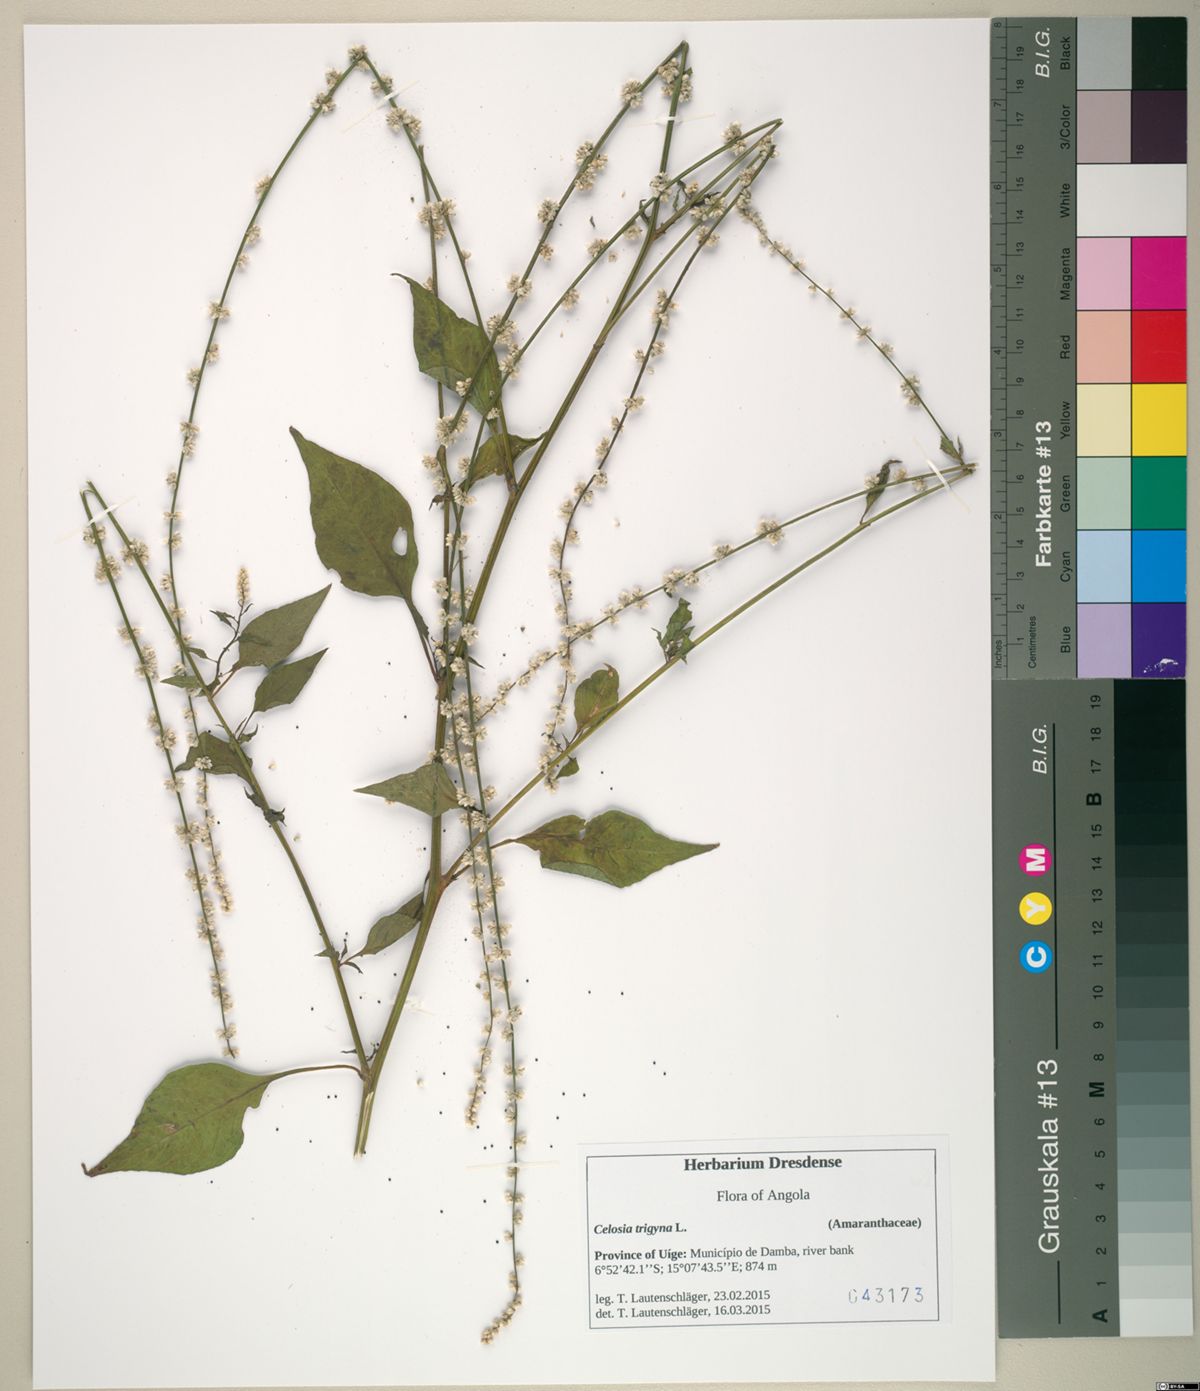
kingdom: Plantae
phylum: Tracheophyta
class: Magnoliopsida
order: Caryophyllales
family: Amaranthaceae
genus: Celosia
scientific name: Celosia trigyna
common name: Woolflower
